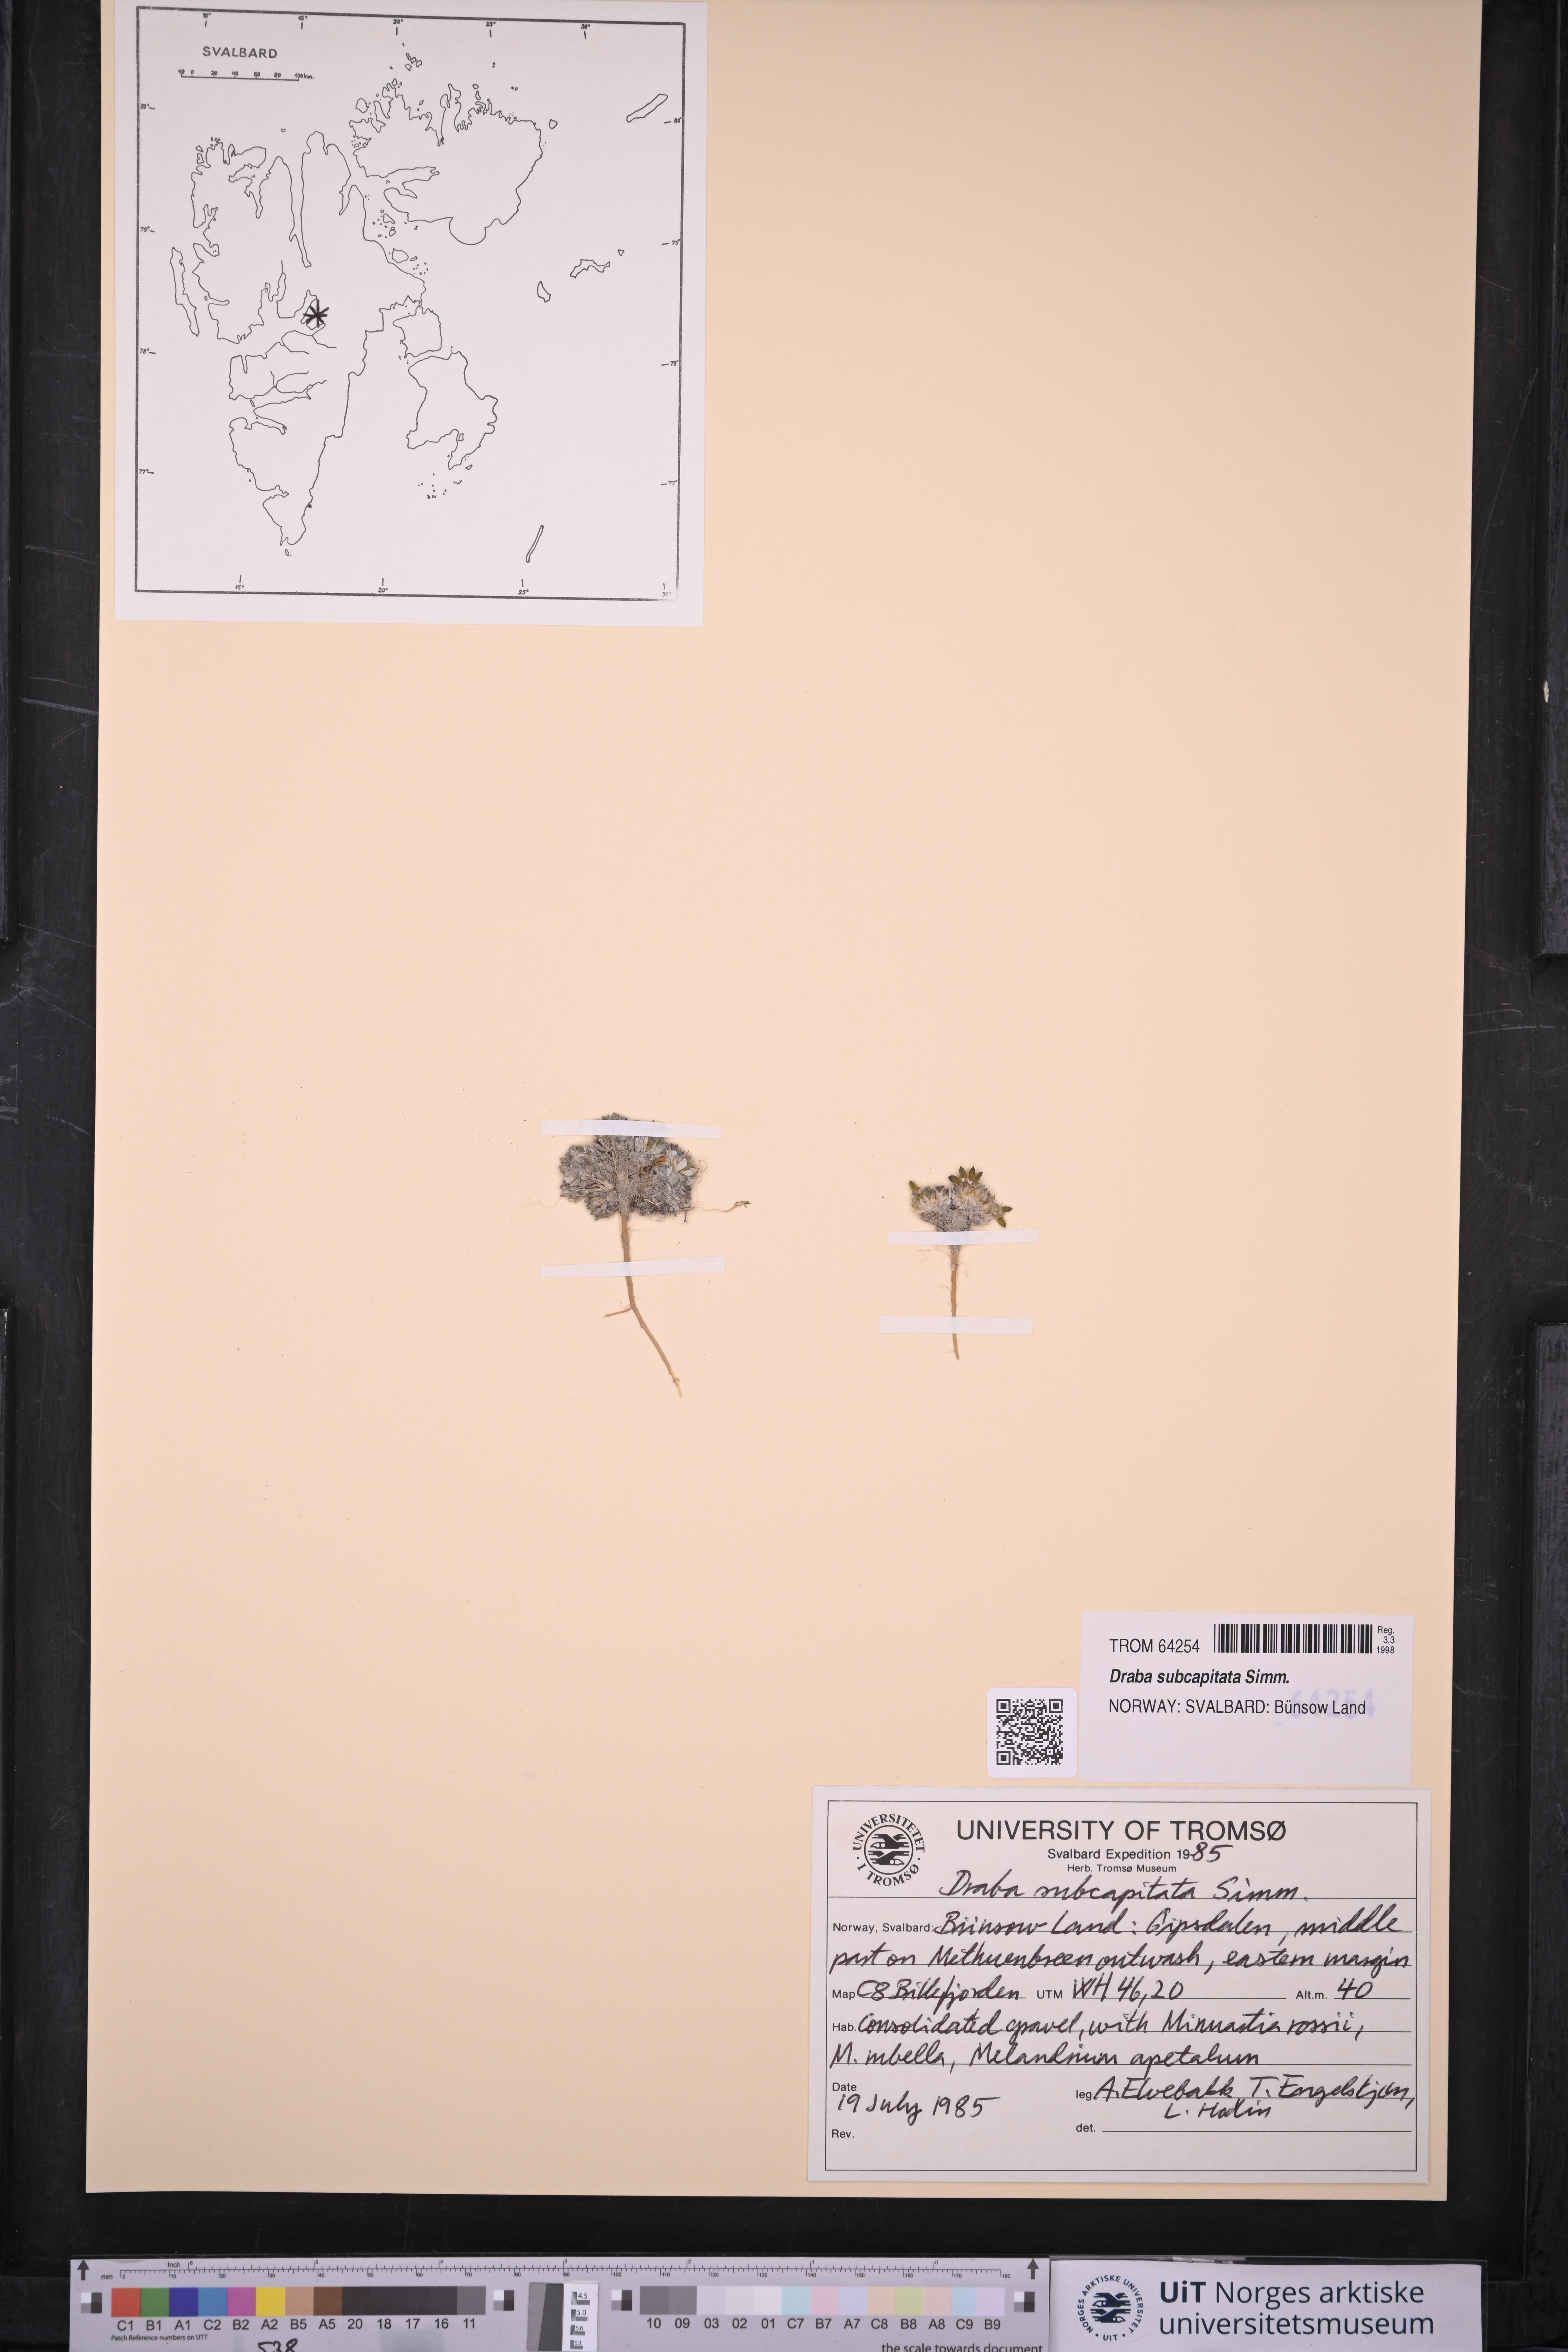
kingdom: Plantae
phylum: Tracheophyta
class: Magnoliopsida
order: Brassicales
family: Brassicaceae
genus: Draba
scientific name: Draba subcapitata
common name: Ellesmere island draba
